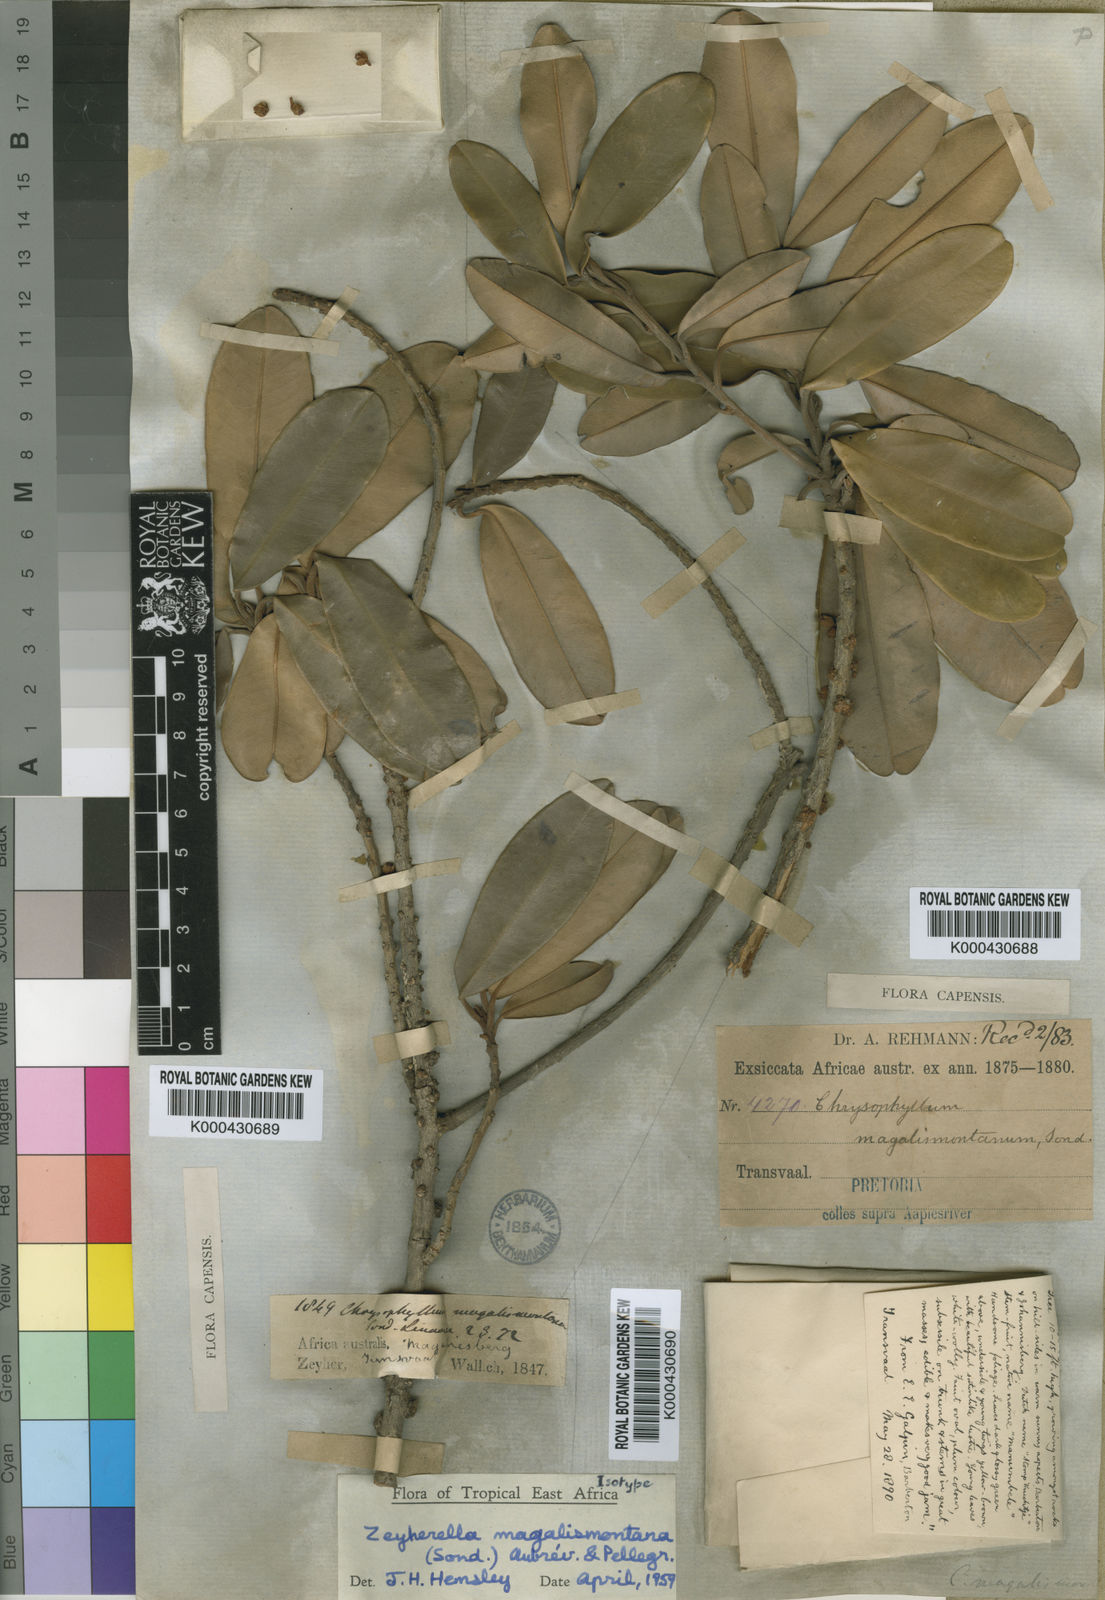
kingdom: Plantae
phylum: Tracheophyta
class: Magnoliopsida
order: Ericales
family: Sapotaceae
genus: Englerophytum
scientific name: Englerophytum magalismontanum
